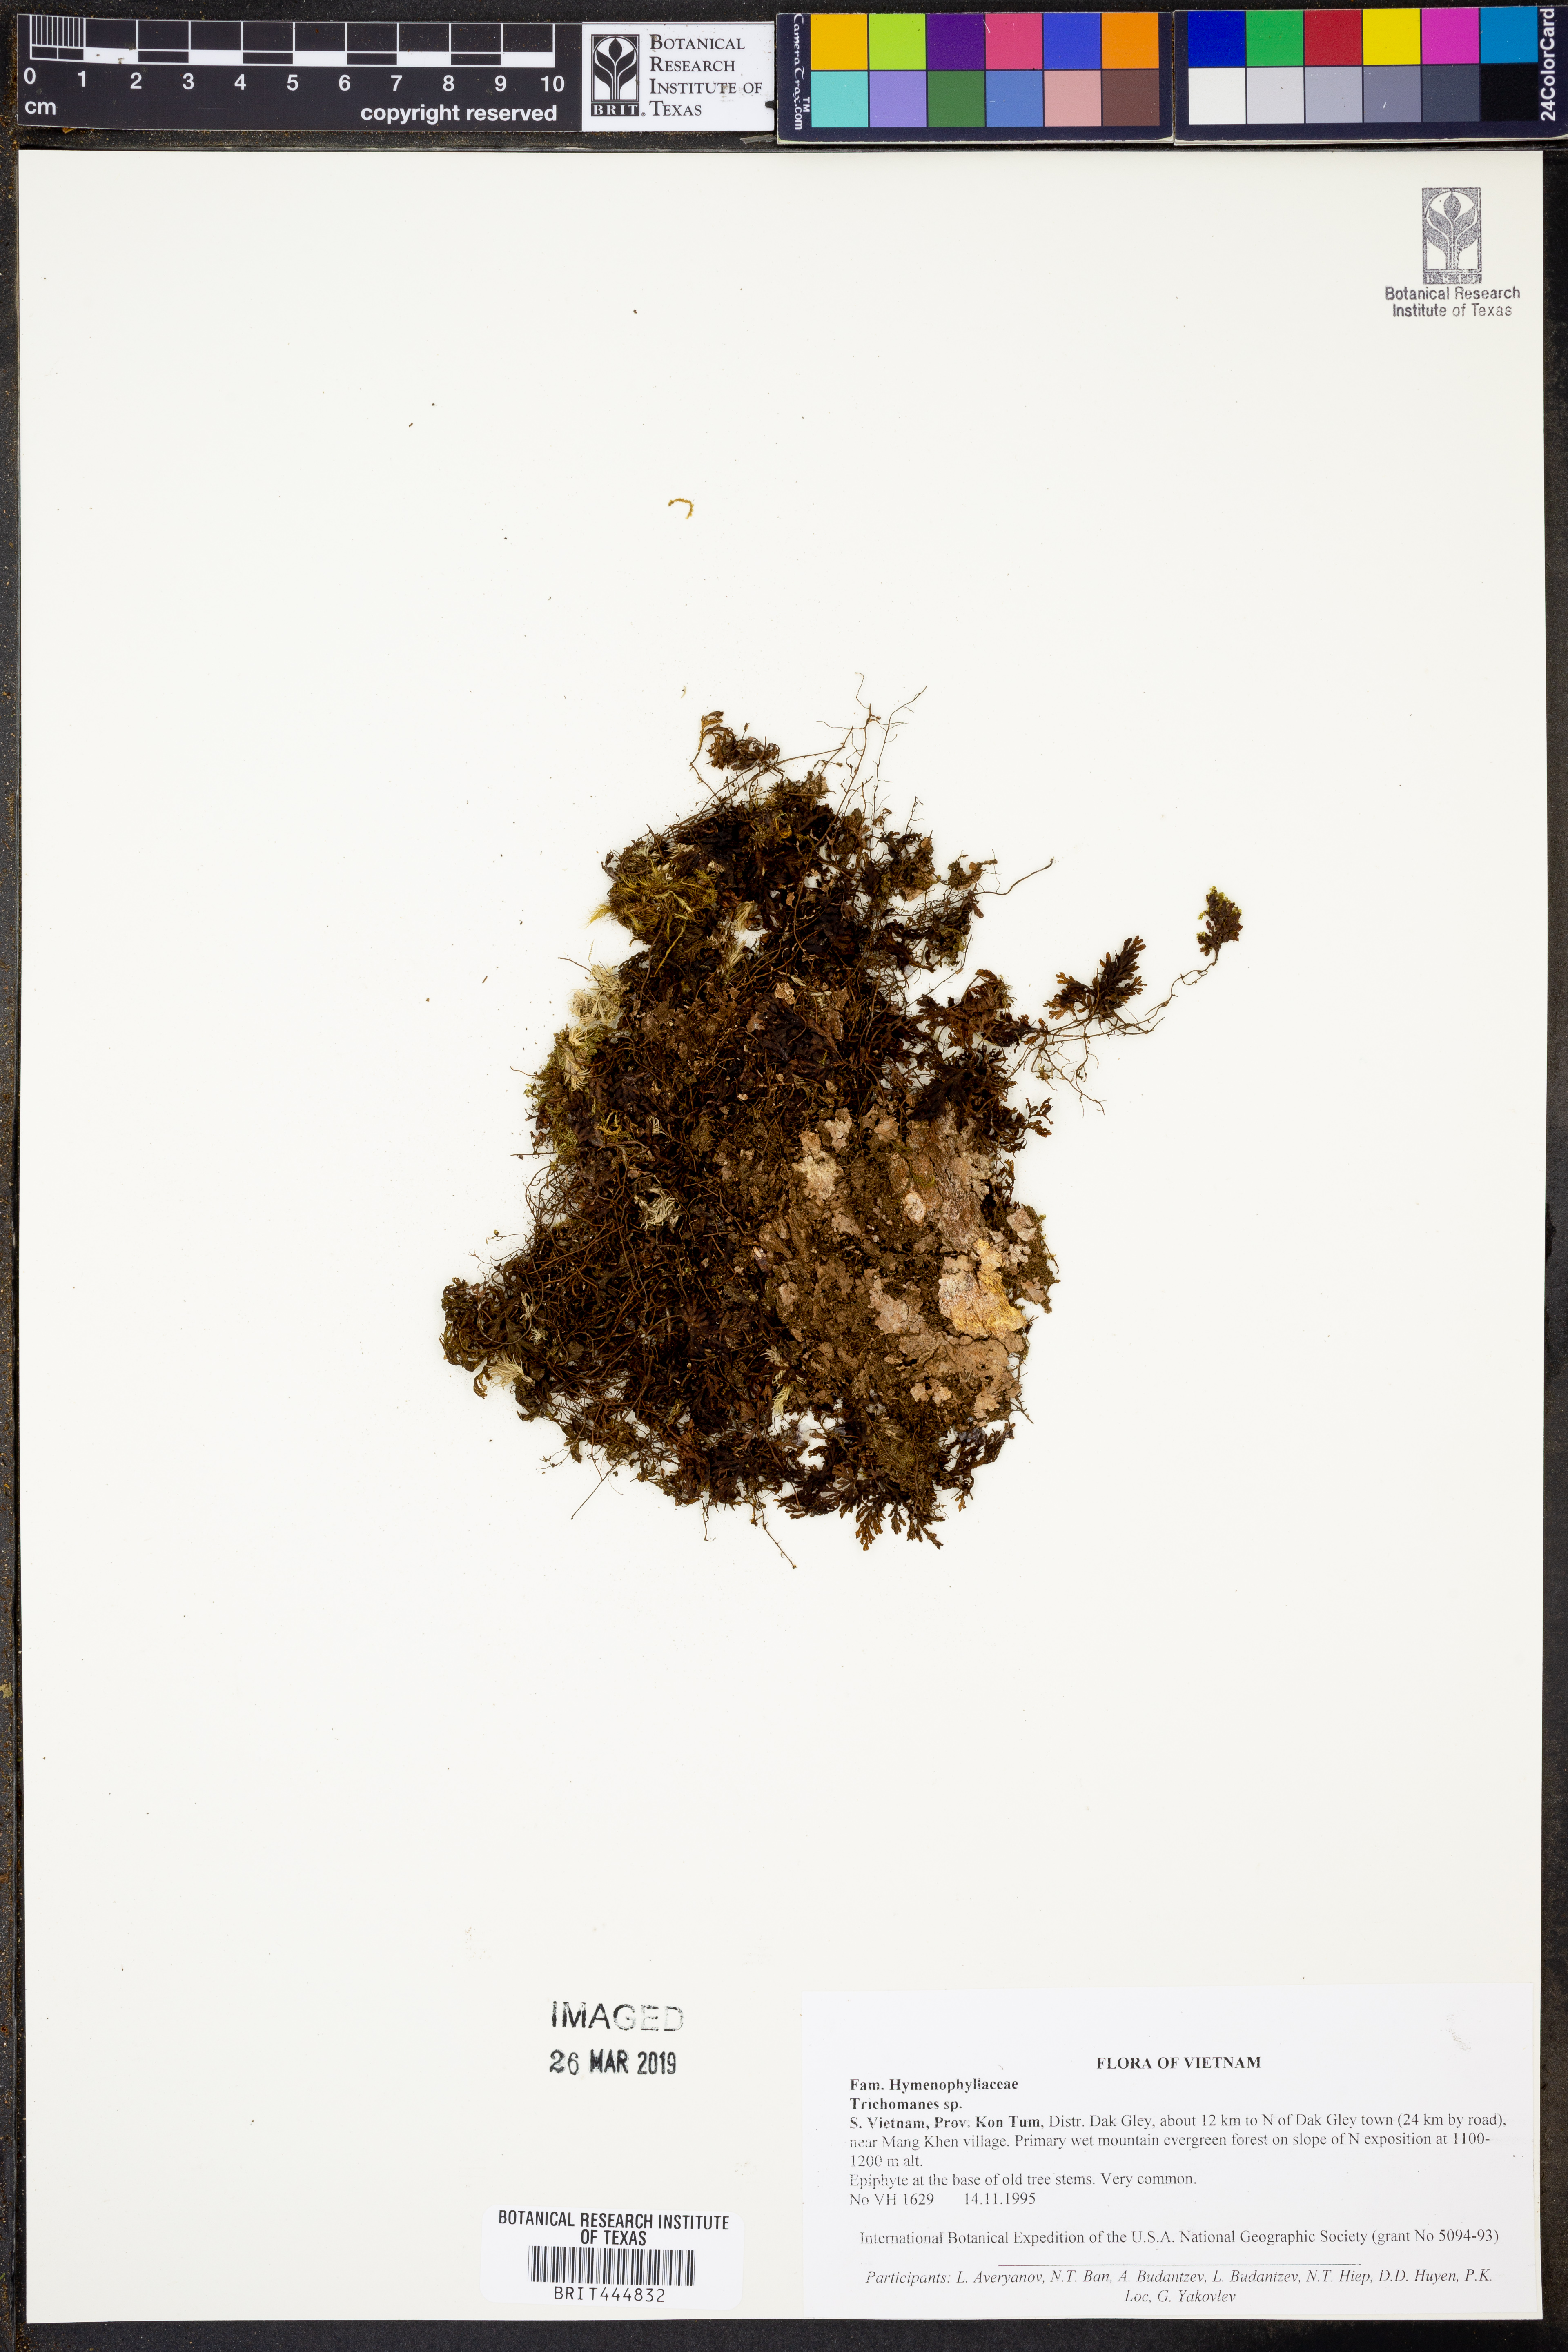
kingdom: Plantae
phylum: Tracheophyta
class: Polypodiopsida
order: Hymenophyllales
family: Hymenophyllaceae
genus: Trichomanes
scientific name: Trichomanes
